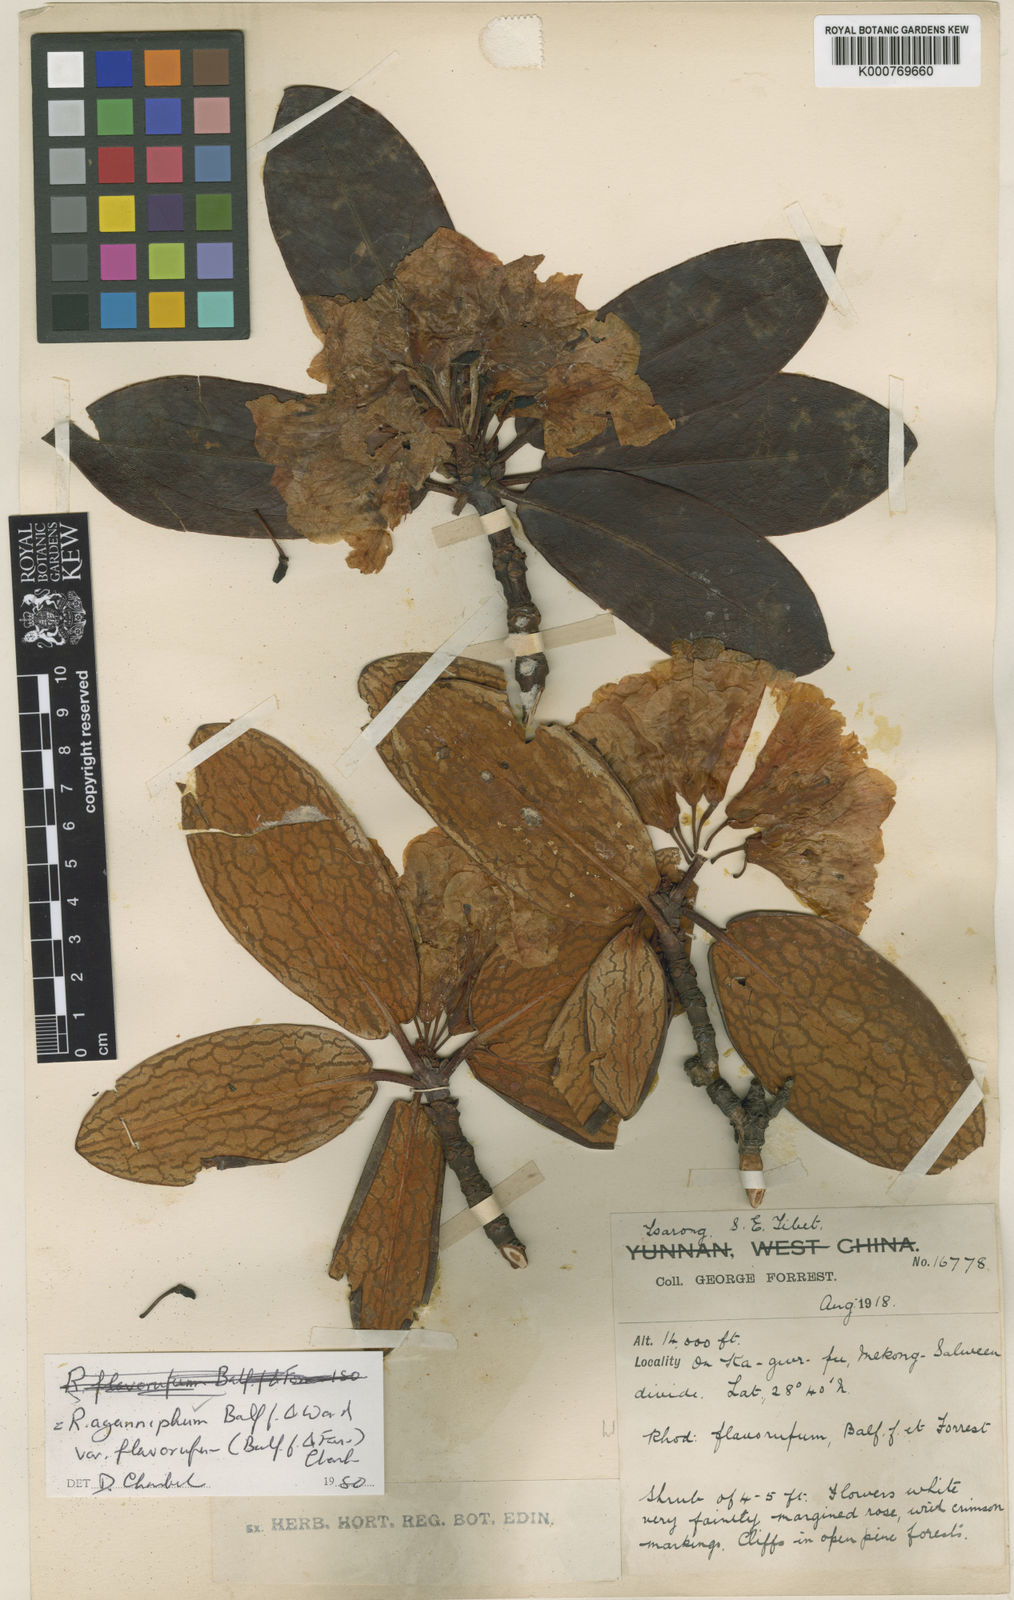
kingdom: Plantae
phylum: Tracheophyta
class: Magnoliopsida
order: Ericales
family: Ericaceae
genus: Rhododendron
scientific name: Rhododendron aganniphum
